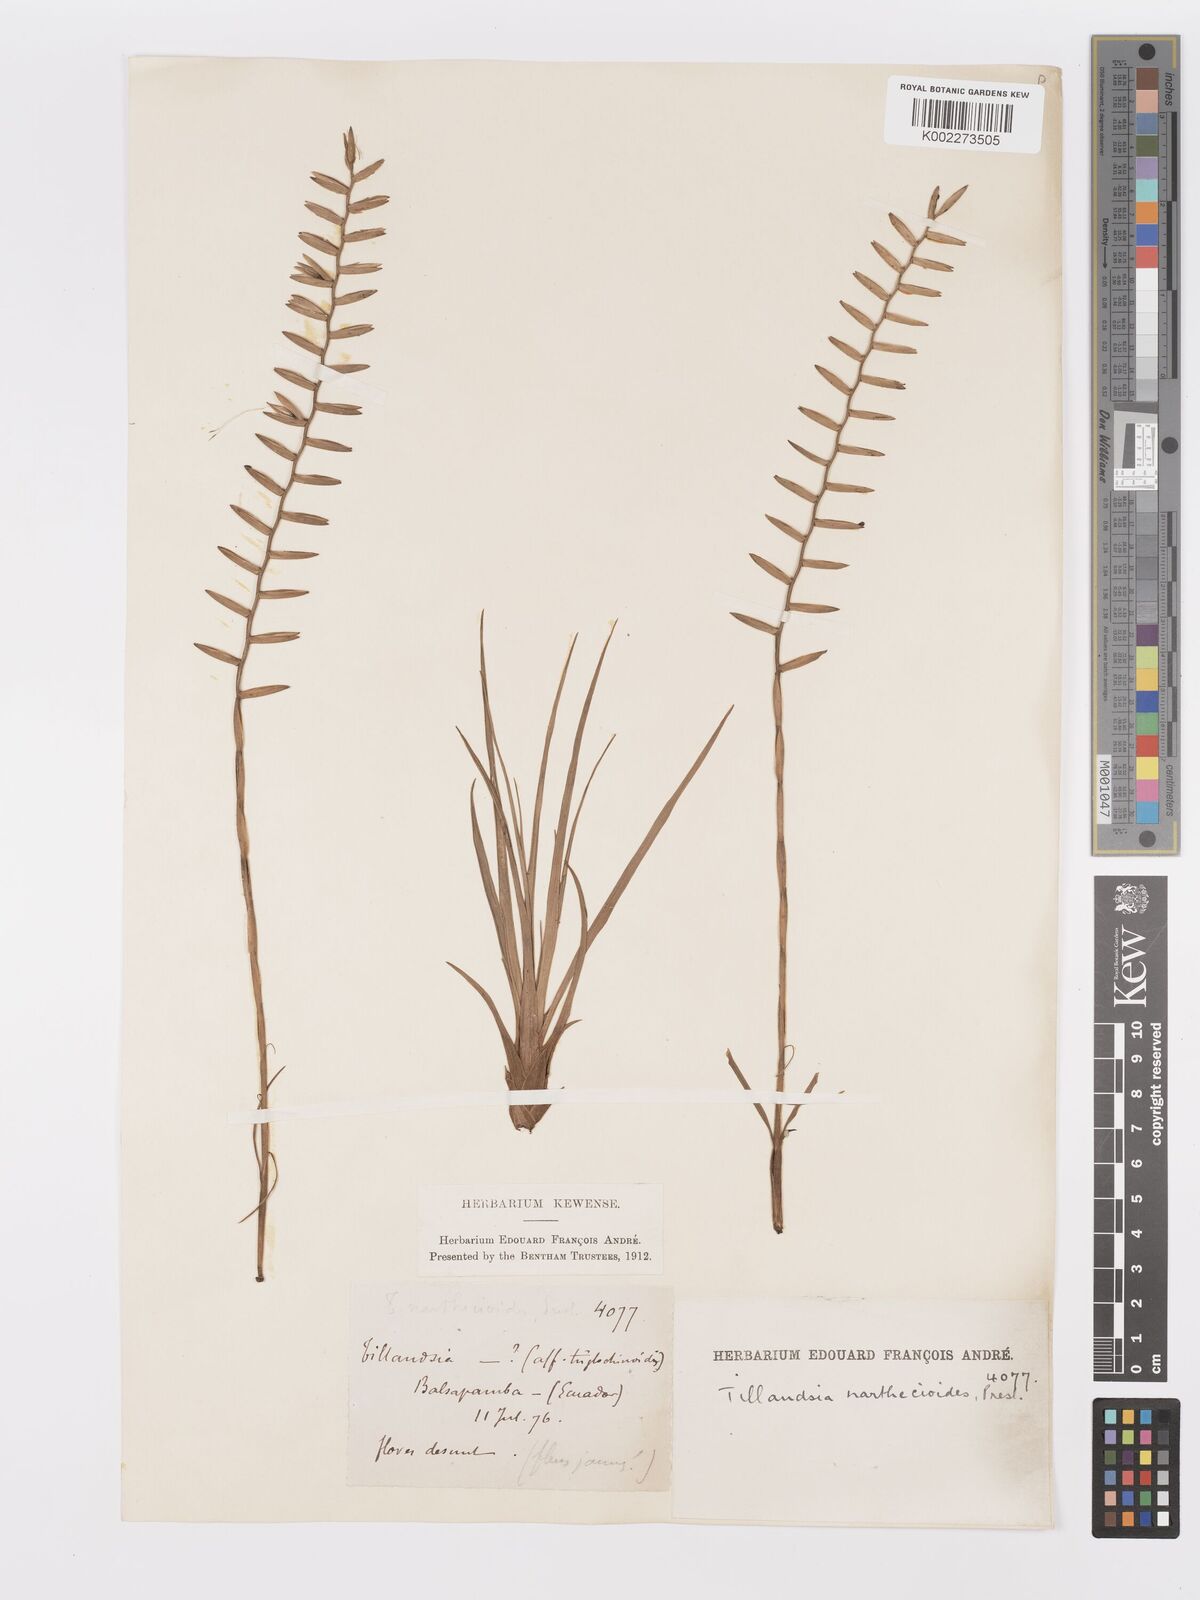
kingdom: Plantae
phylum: Tracheophyta
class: Liliopsida
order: Poales
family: Bromeliaceae
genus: Lemeltonia
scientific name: Lemeltonia narthecioides
